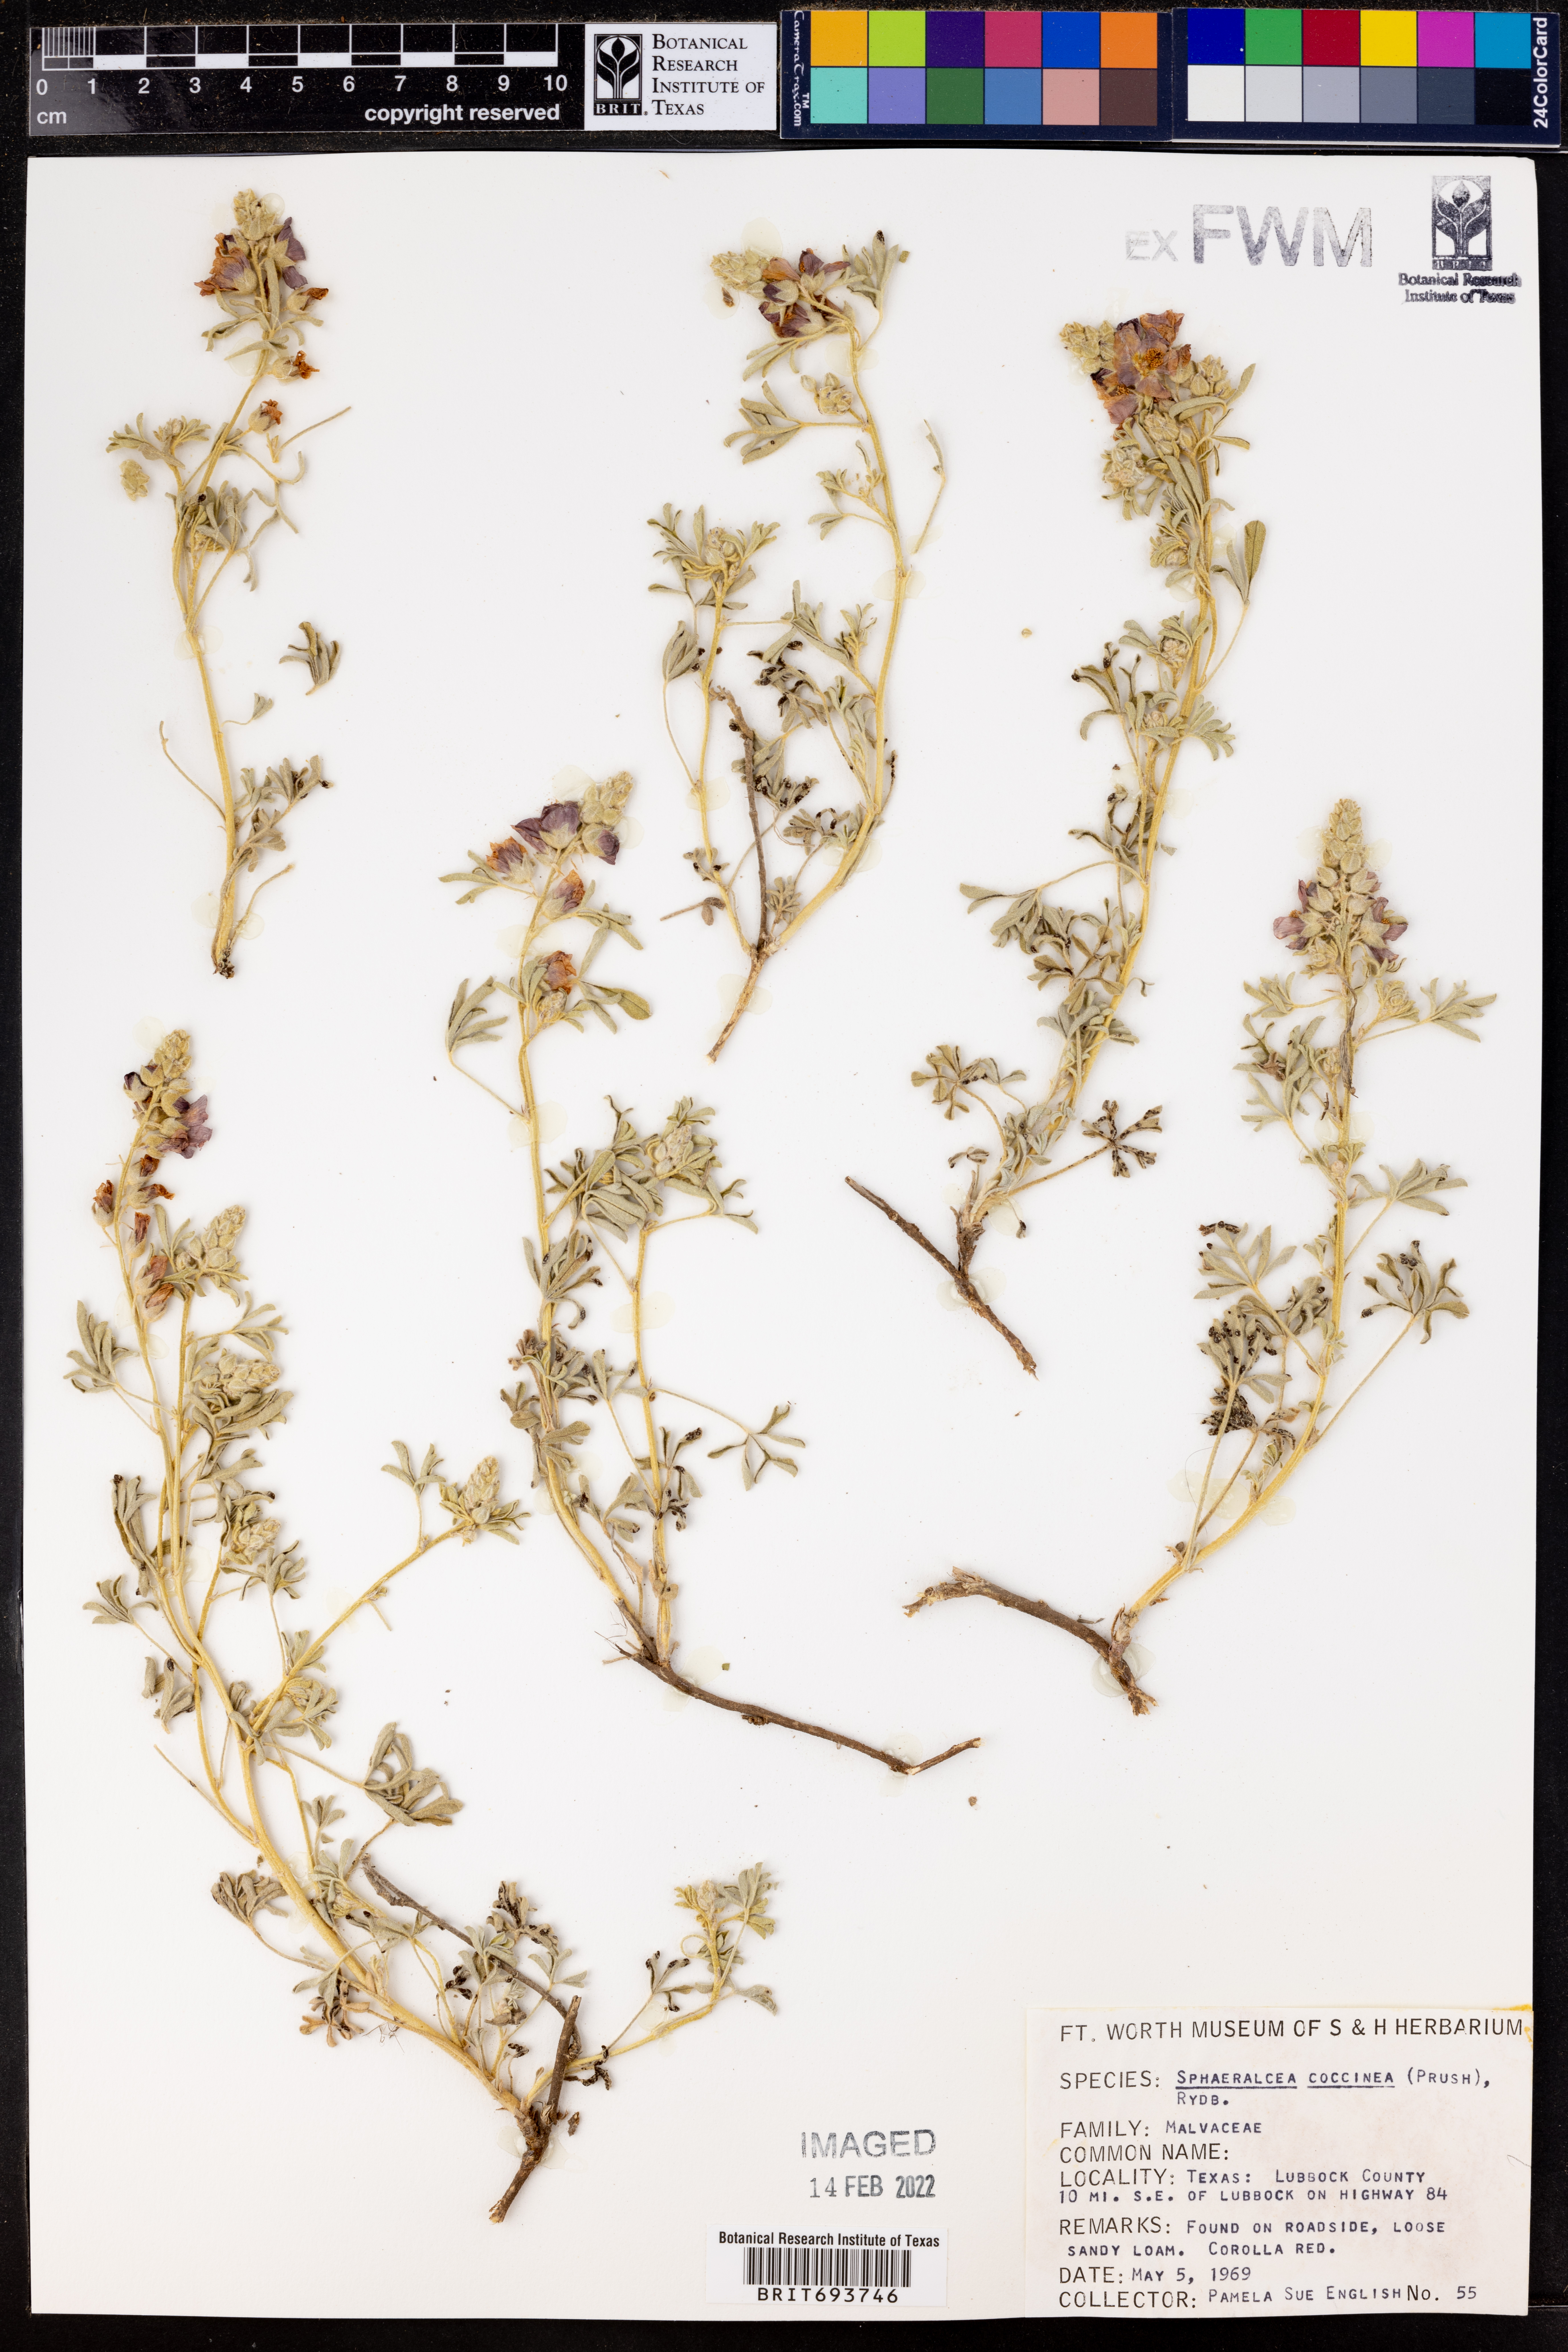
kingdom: Plantae
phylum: Tracheophyta
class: Magnoliopsida
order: Malvales
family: Malvaceae
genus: Sphaeralcea
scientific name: Sphaeralcea coccinea
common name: Moss-rose
